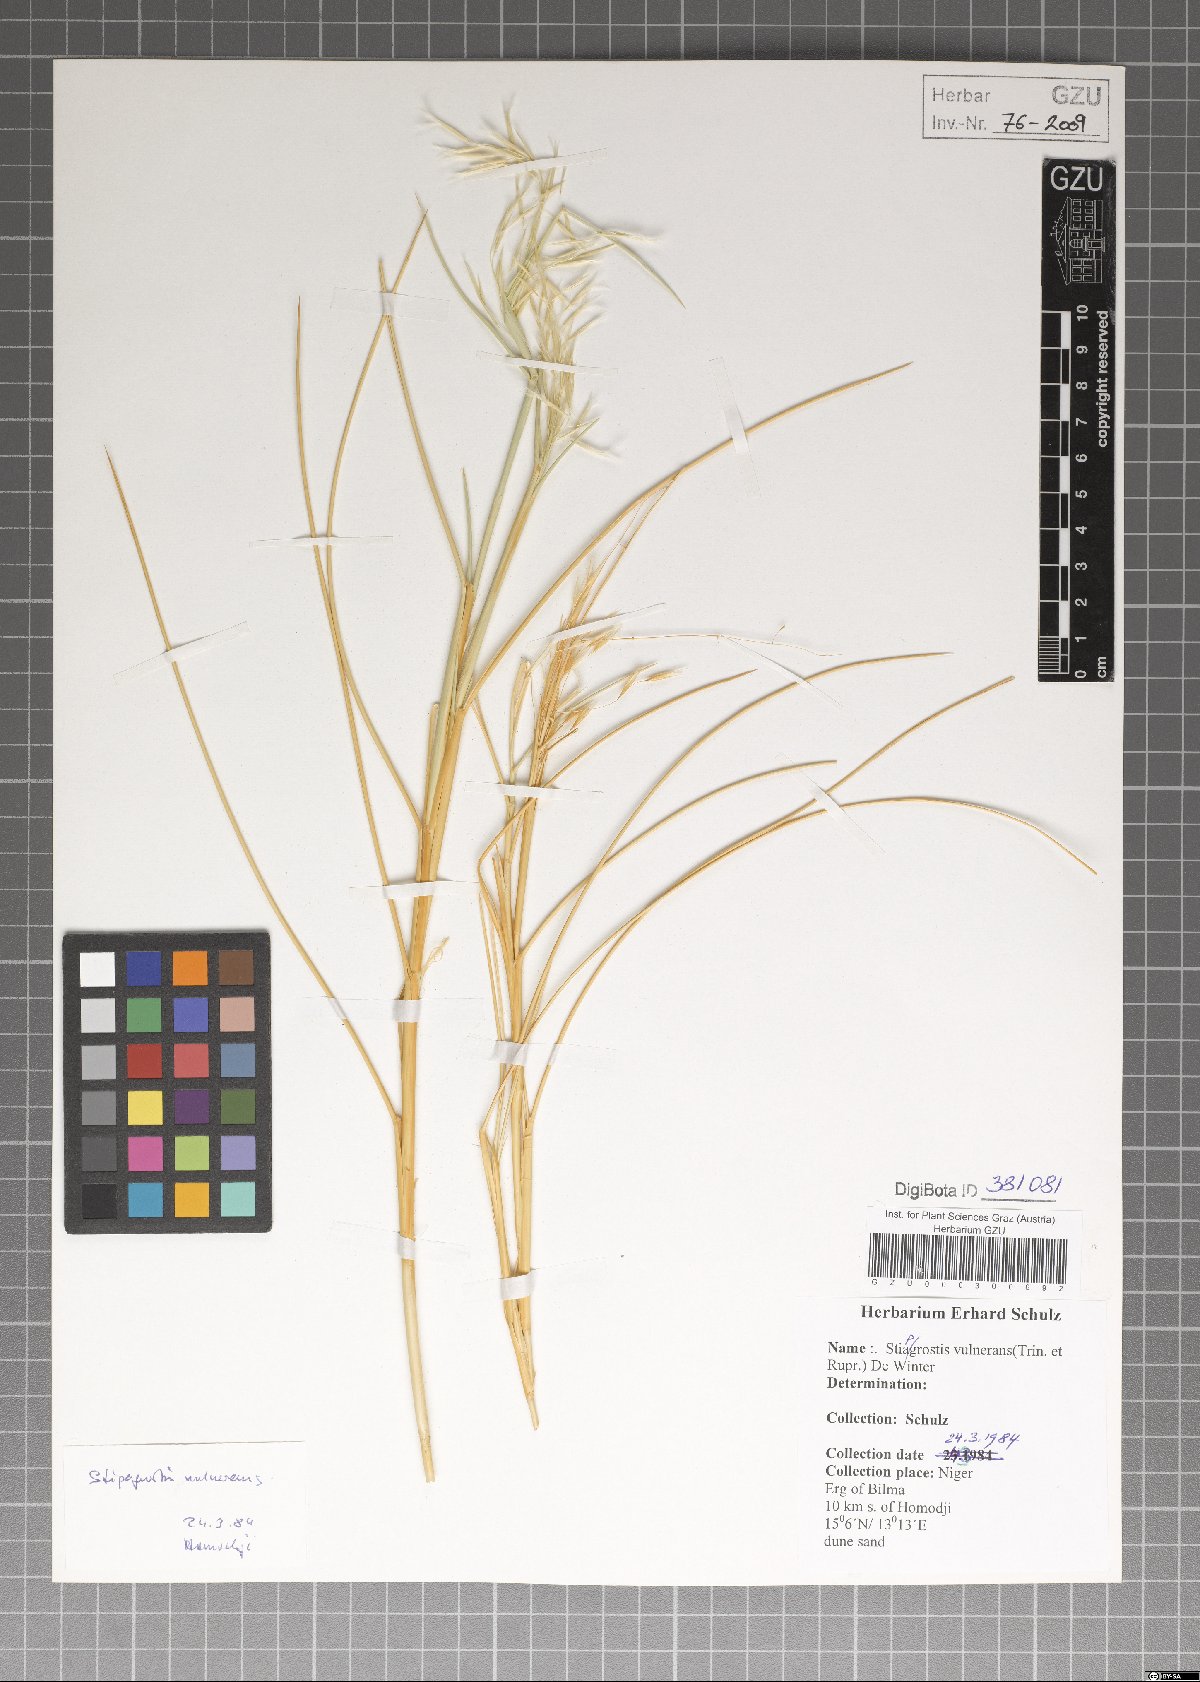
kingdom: Plantae
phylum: Tracheophyta
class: Liliopsida
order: Poales
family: Poaceae
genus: Stipagrostis
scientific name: Stipagrostis vulnerans
